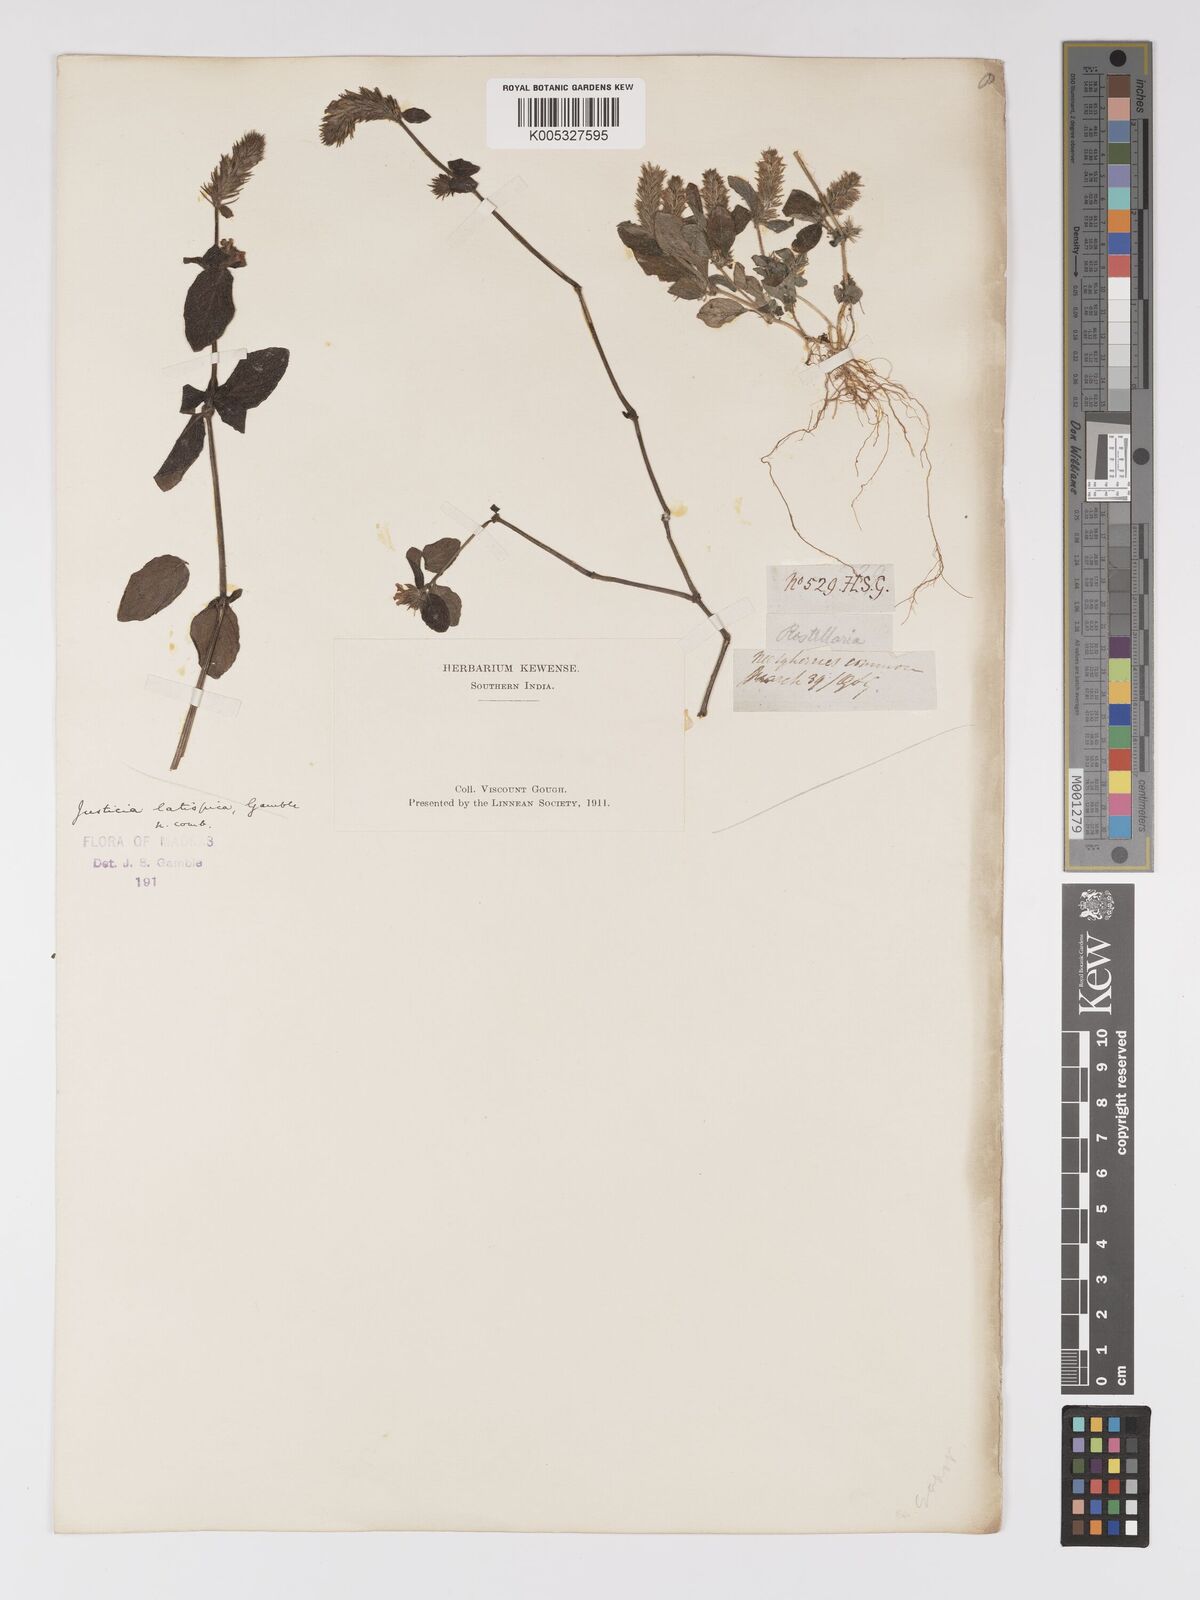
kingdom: Plantae
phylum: Tracheophyta
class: Magnoliopsida
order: Lamiales
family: Acanthaceae
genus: Rostellularia
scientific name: Rostellularia latispica
